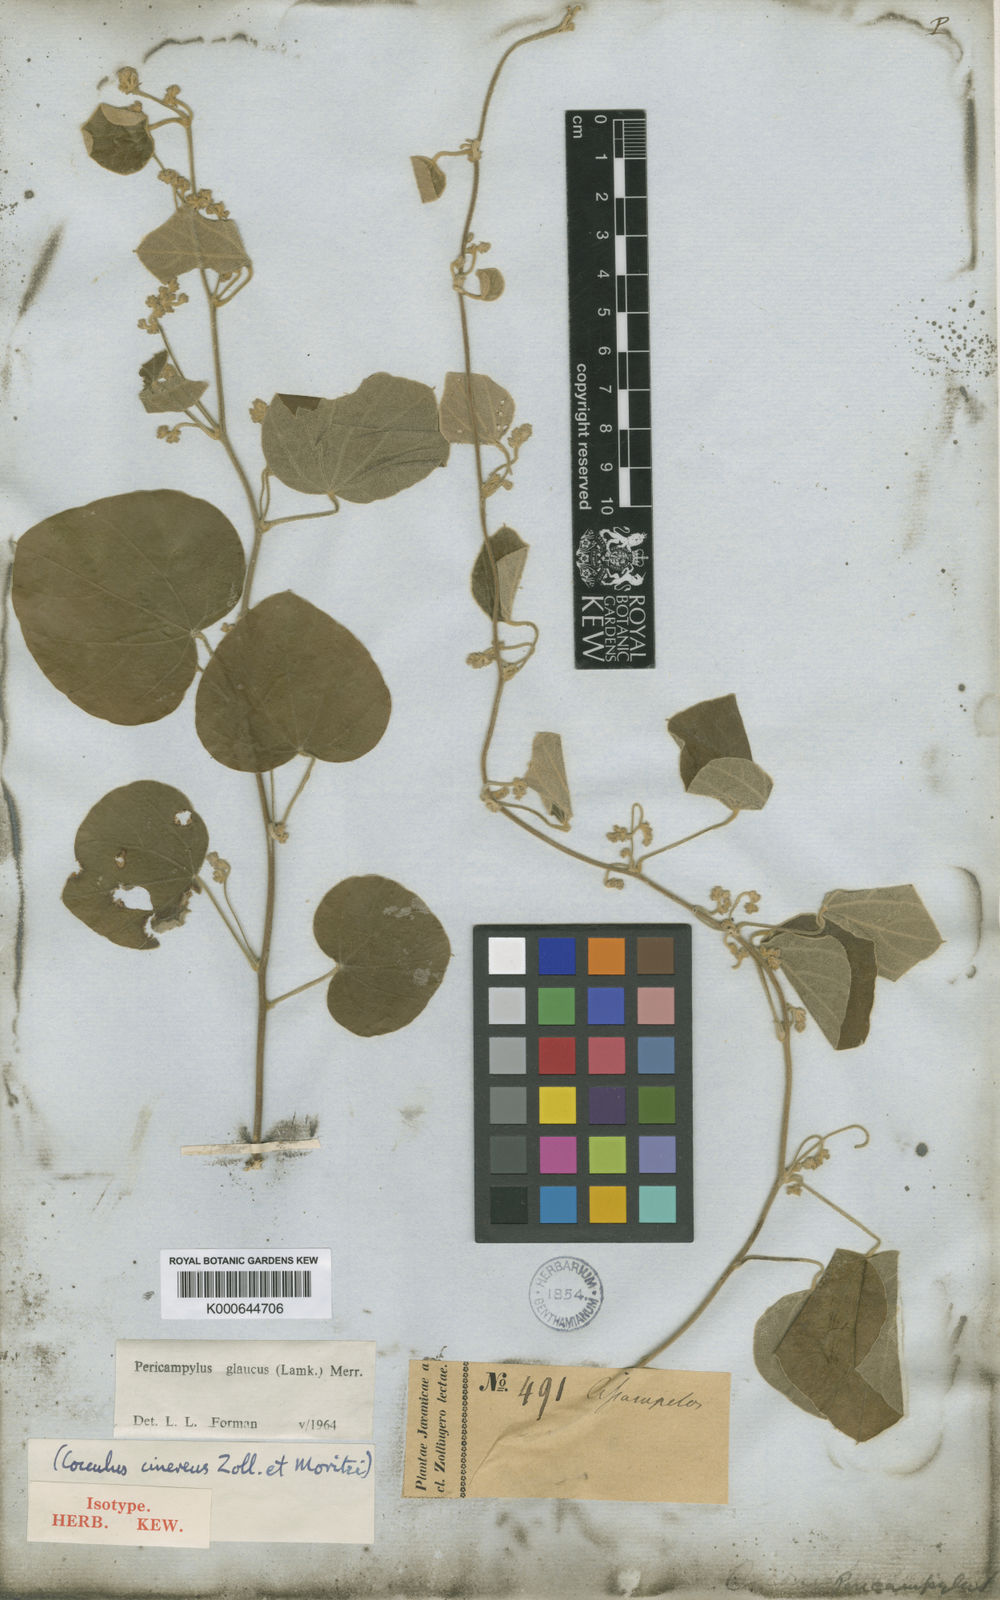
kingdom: Plantae
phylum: Tracheophyta
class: Magnoliopsida
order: Ranunculales
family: Menispermaceae
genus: Pericampylus
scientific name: Pericampylus glaucus
